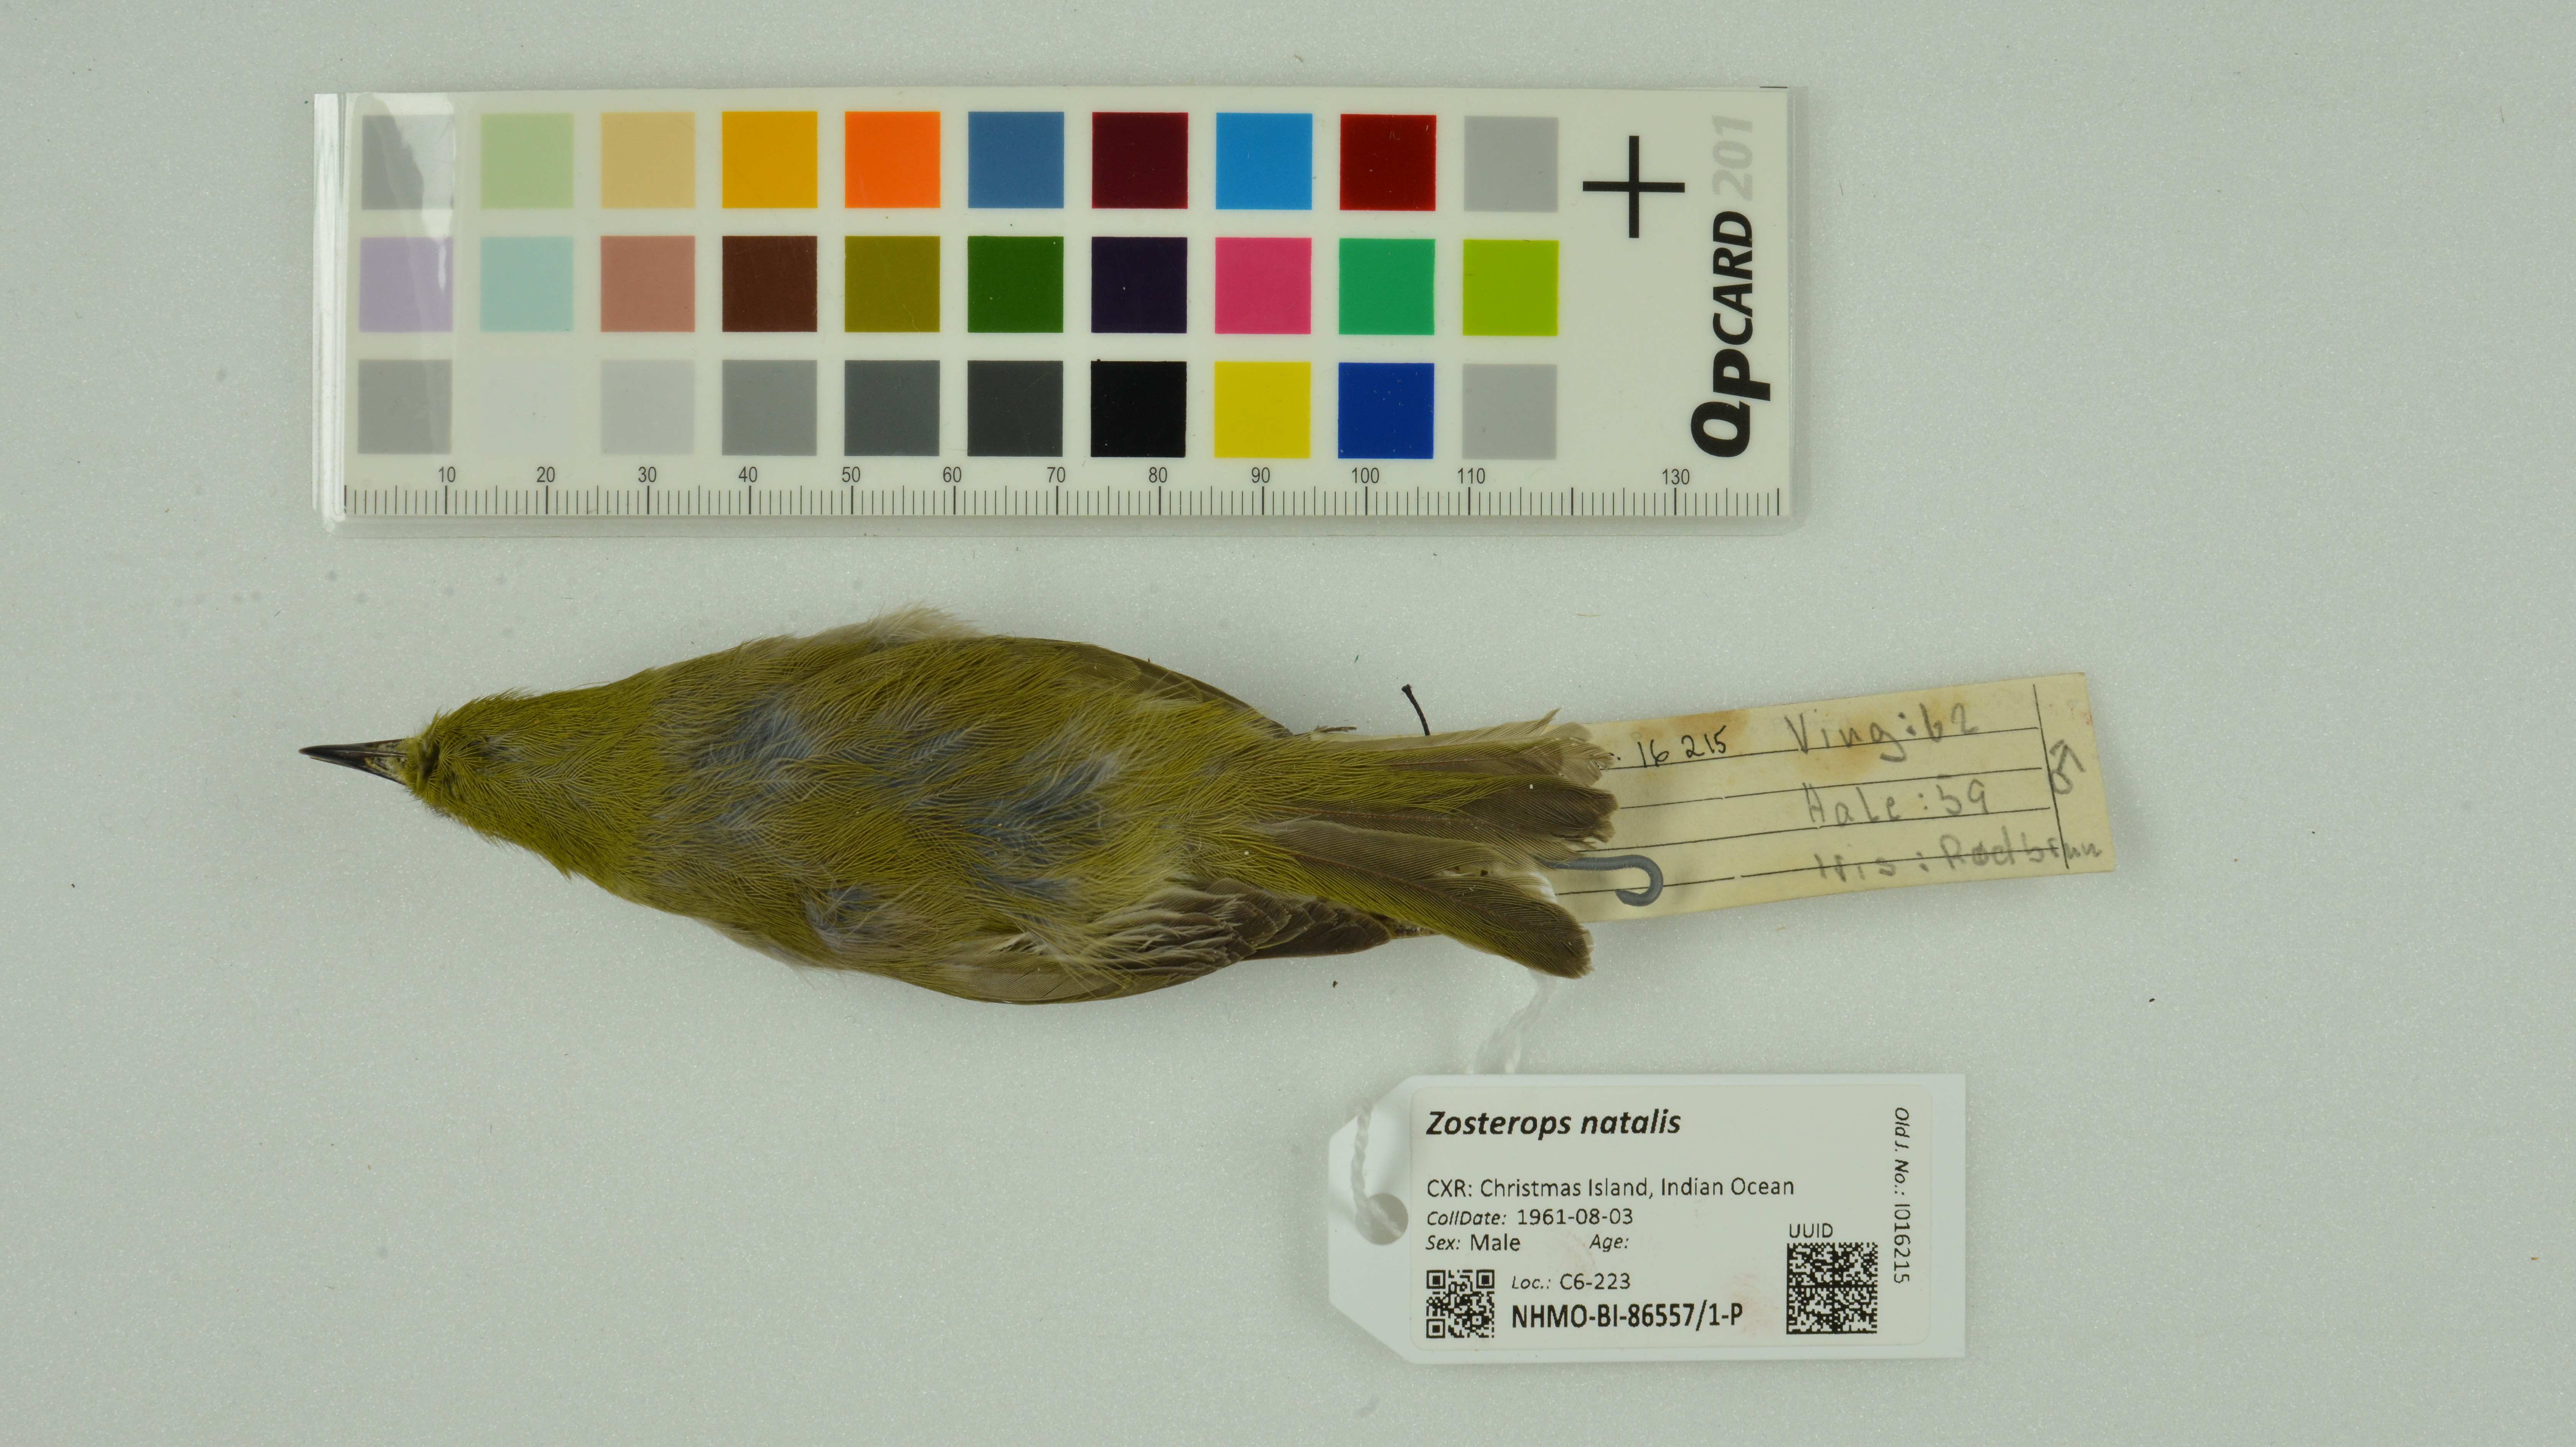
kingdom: Animalia
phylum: Chordata
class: Aves
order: Passeriformes
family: Zosteropidae
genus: Zosterops
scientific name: Zosterops natalis
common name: Christmas white-eye
